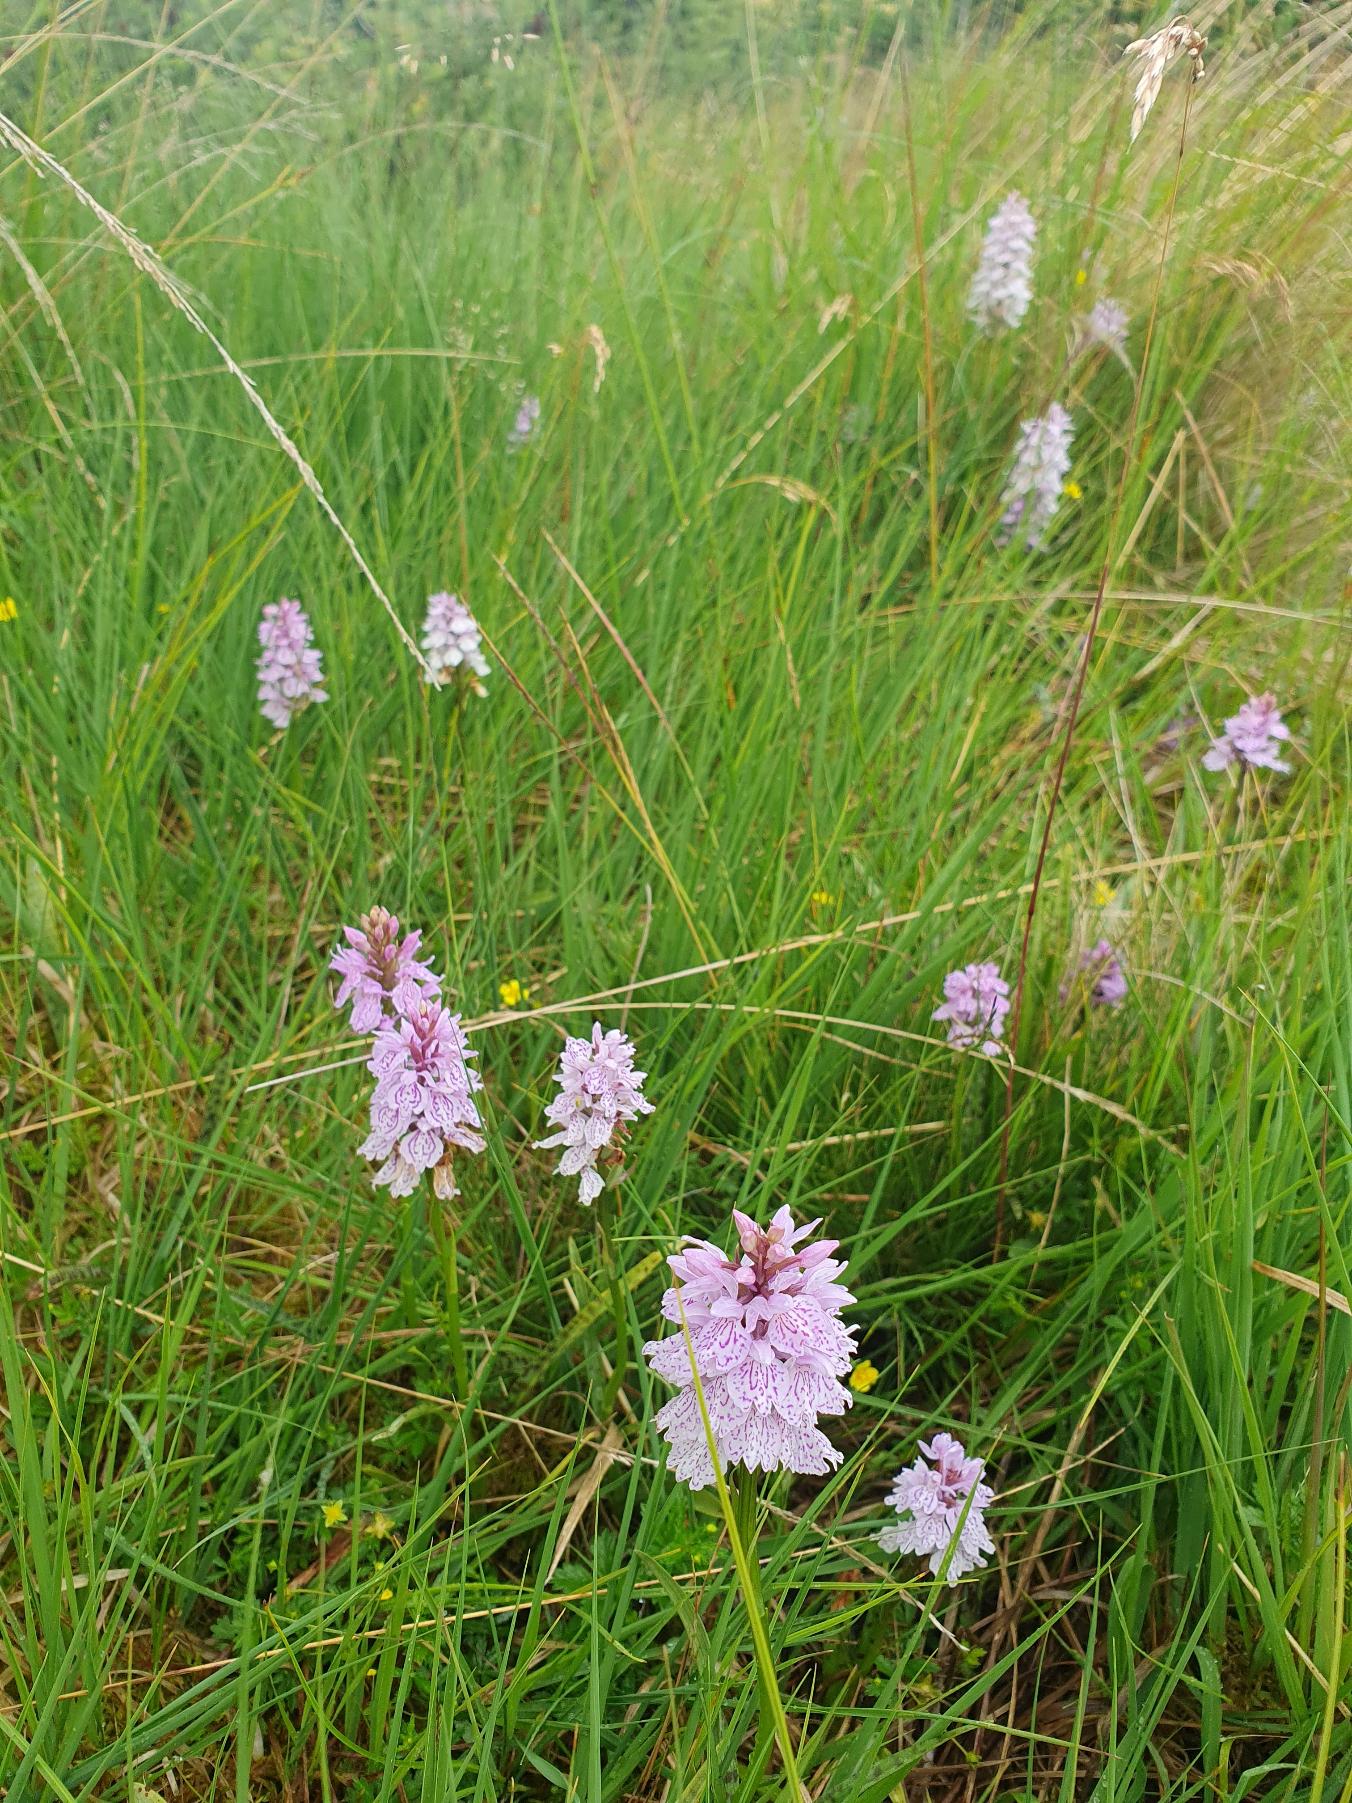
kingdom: Plantae
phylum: Tracheophyta
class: Liliopsida
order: Asparagales
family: Orchidaceae
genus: Dactylorhiza
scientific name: Dactylorhiza maculata
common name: Plettet gøgeurt (underart)
